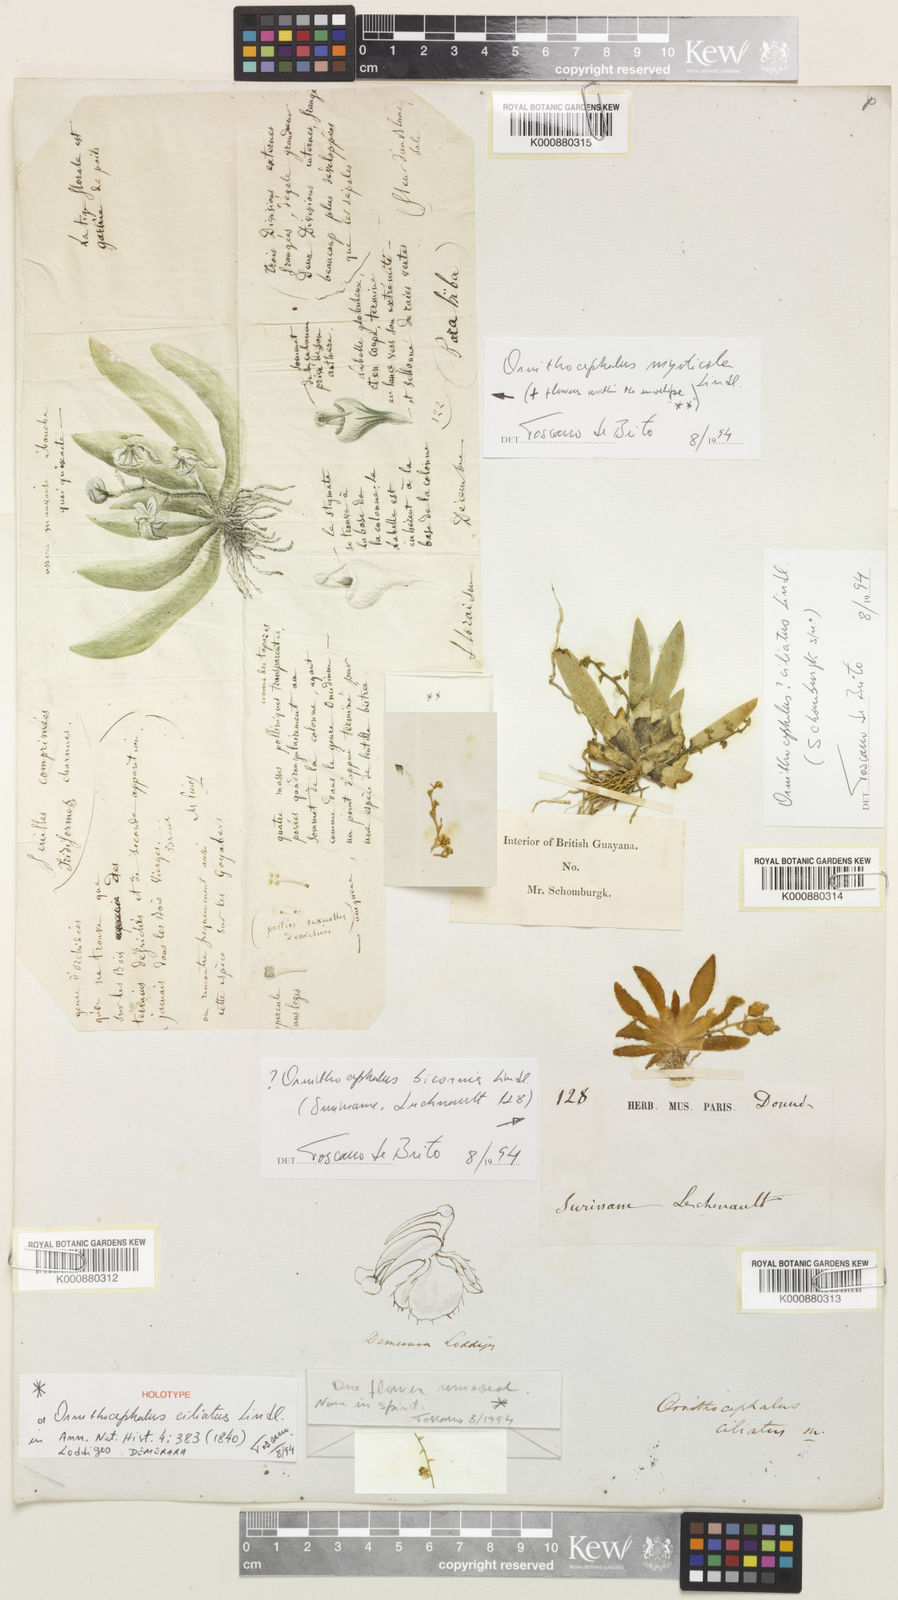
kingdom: Plantae
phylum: Tracheophyta
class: Liliopsida
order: Asparagales
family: Orchidaceae
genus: Ornithocephalus
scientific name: Ornithocephalus ciliatus
